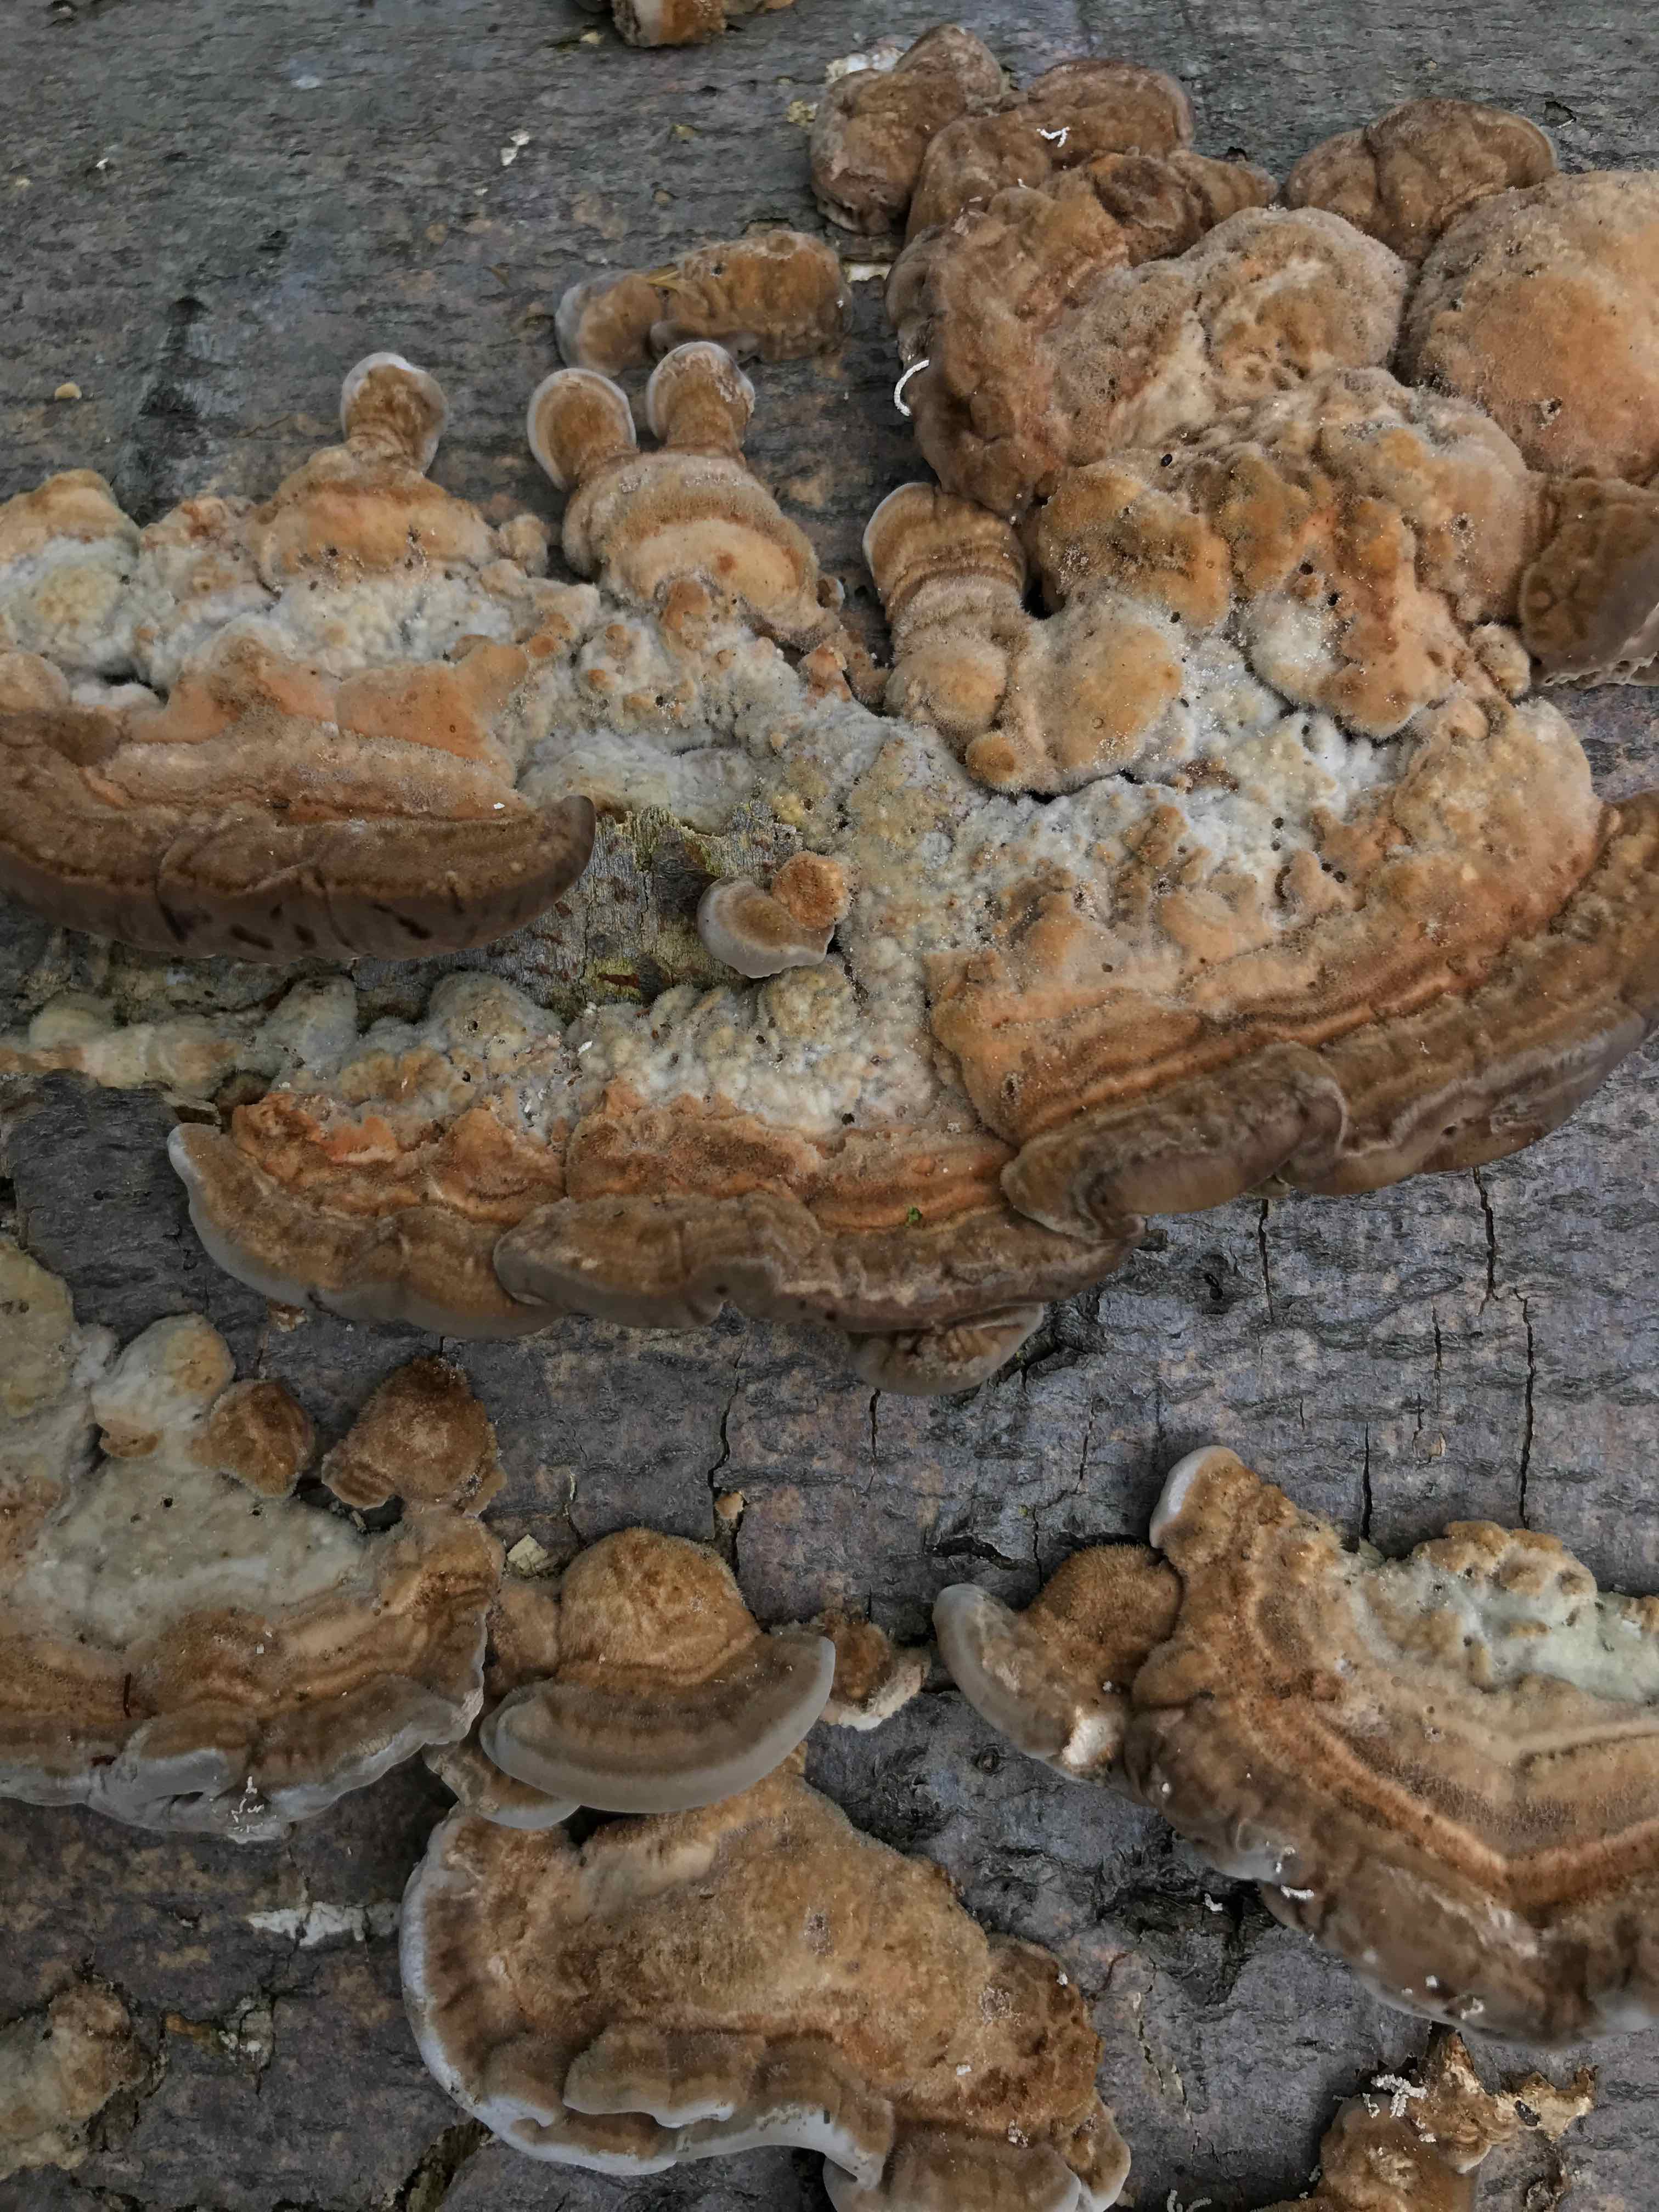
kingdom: Fungi
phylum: Basidiomycota
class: Agaricomycetes
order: Polyporales
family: Polyporaceae
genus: Lenzites
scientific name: Lenzites betulinus
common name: birke-læderporesvamp
